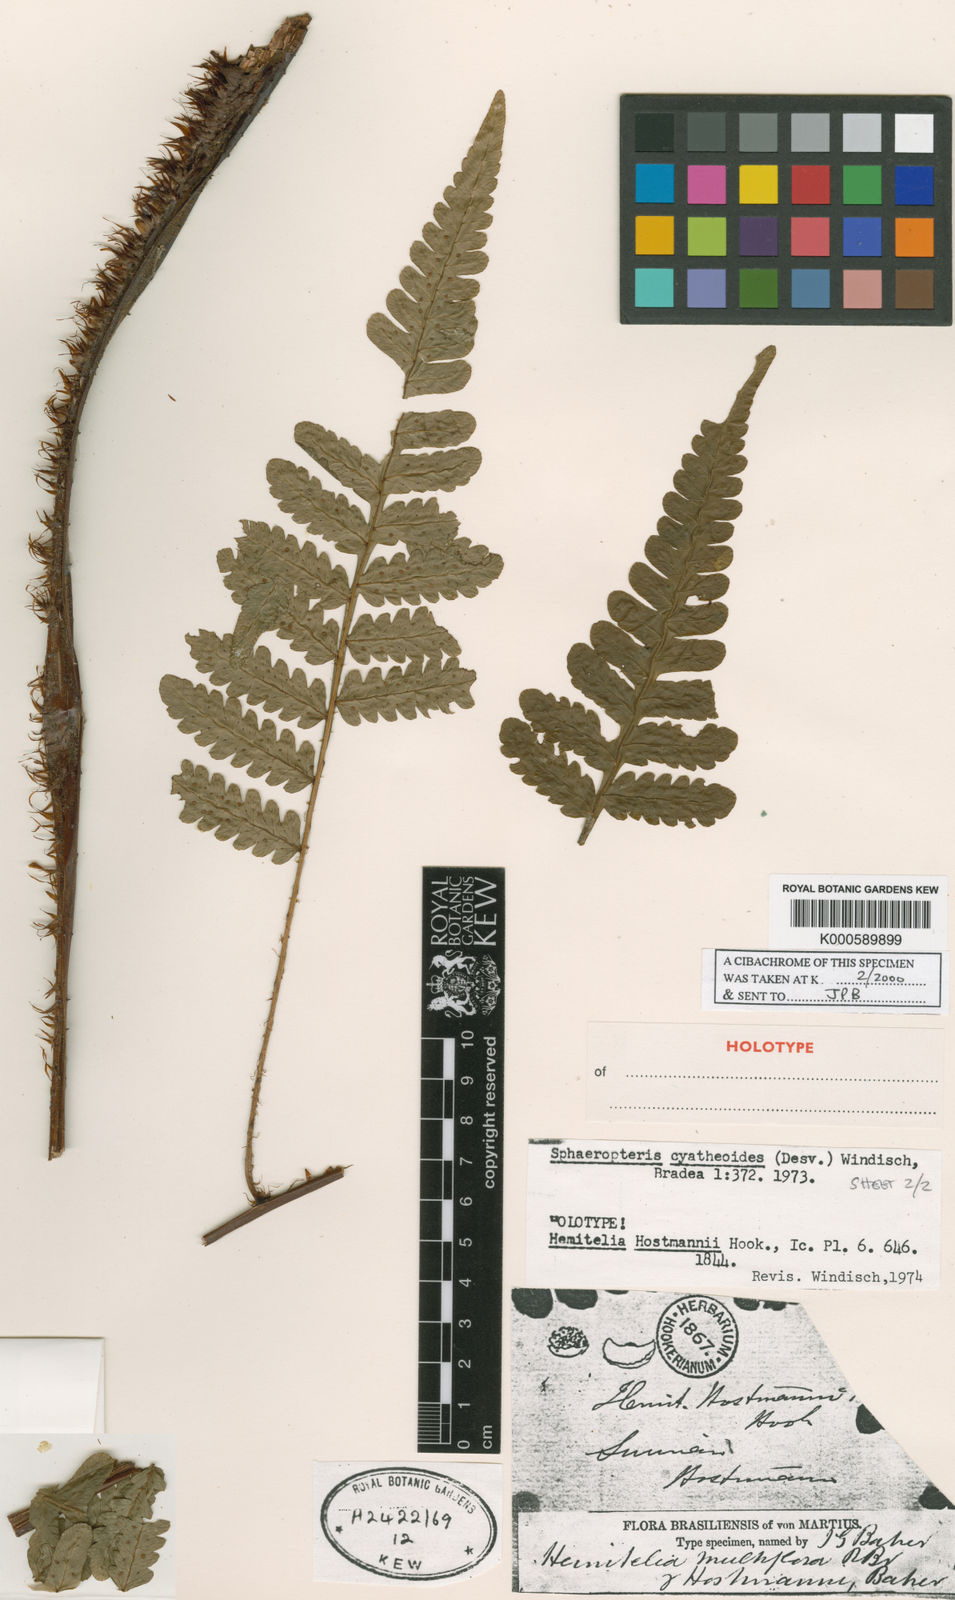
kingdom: Plantae
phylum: Tracheophyta
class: Polypodiopsida
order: Cyatheales
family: Cyatheaceae
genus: Cyathea
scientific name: Cyathea surinamensis
